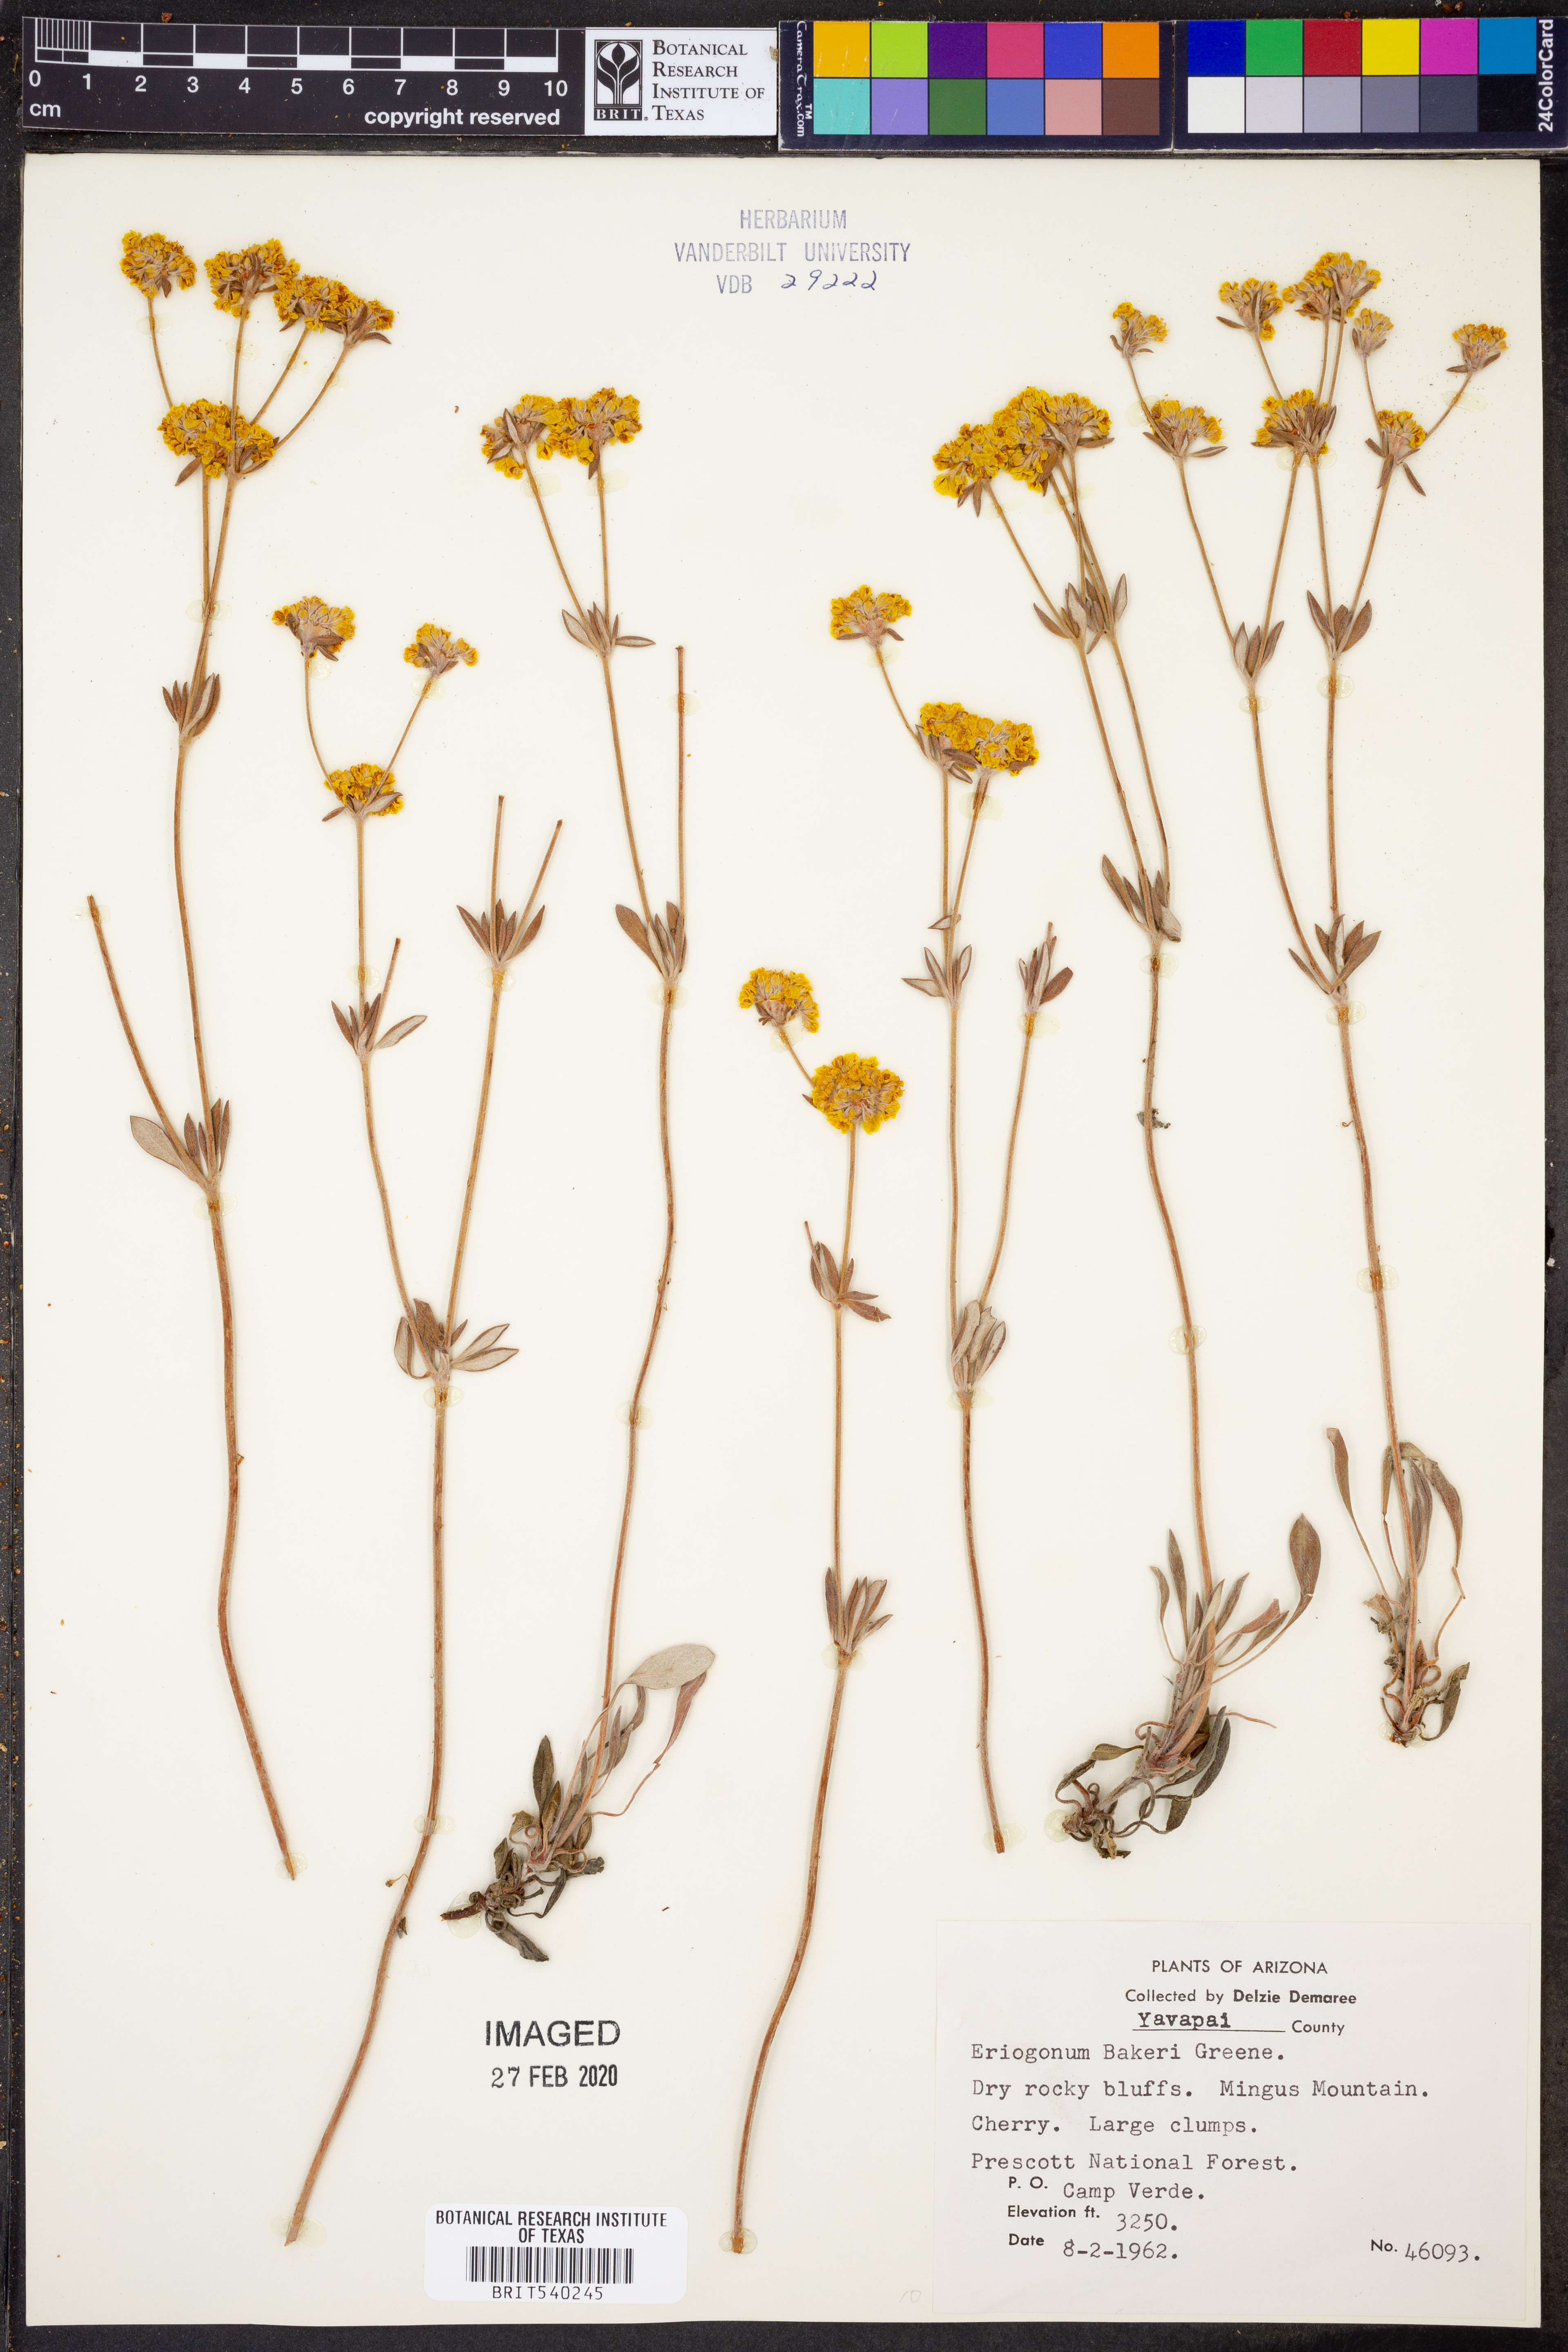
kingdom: Plantae
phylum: Tracheophyta
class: Magnoliopsida
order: Caryophyllales
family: Polygonaceae
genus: Eriogonum
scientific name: Eriogonum arcuatum
